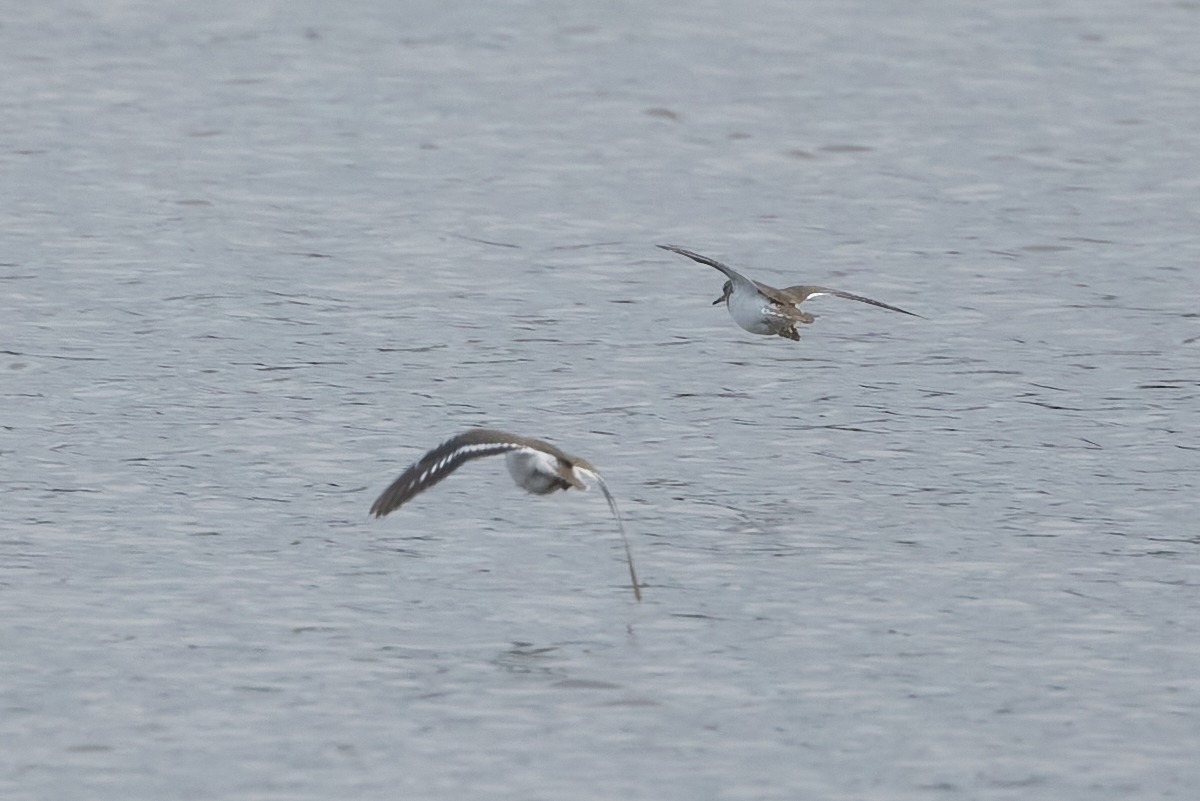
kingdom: Animalia
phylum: Chordata
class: Aves
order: Charadriiformes
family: Scolopacidae
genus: Actitis
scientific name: Actitis hypoleucos
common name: Mudderklire
